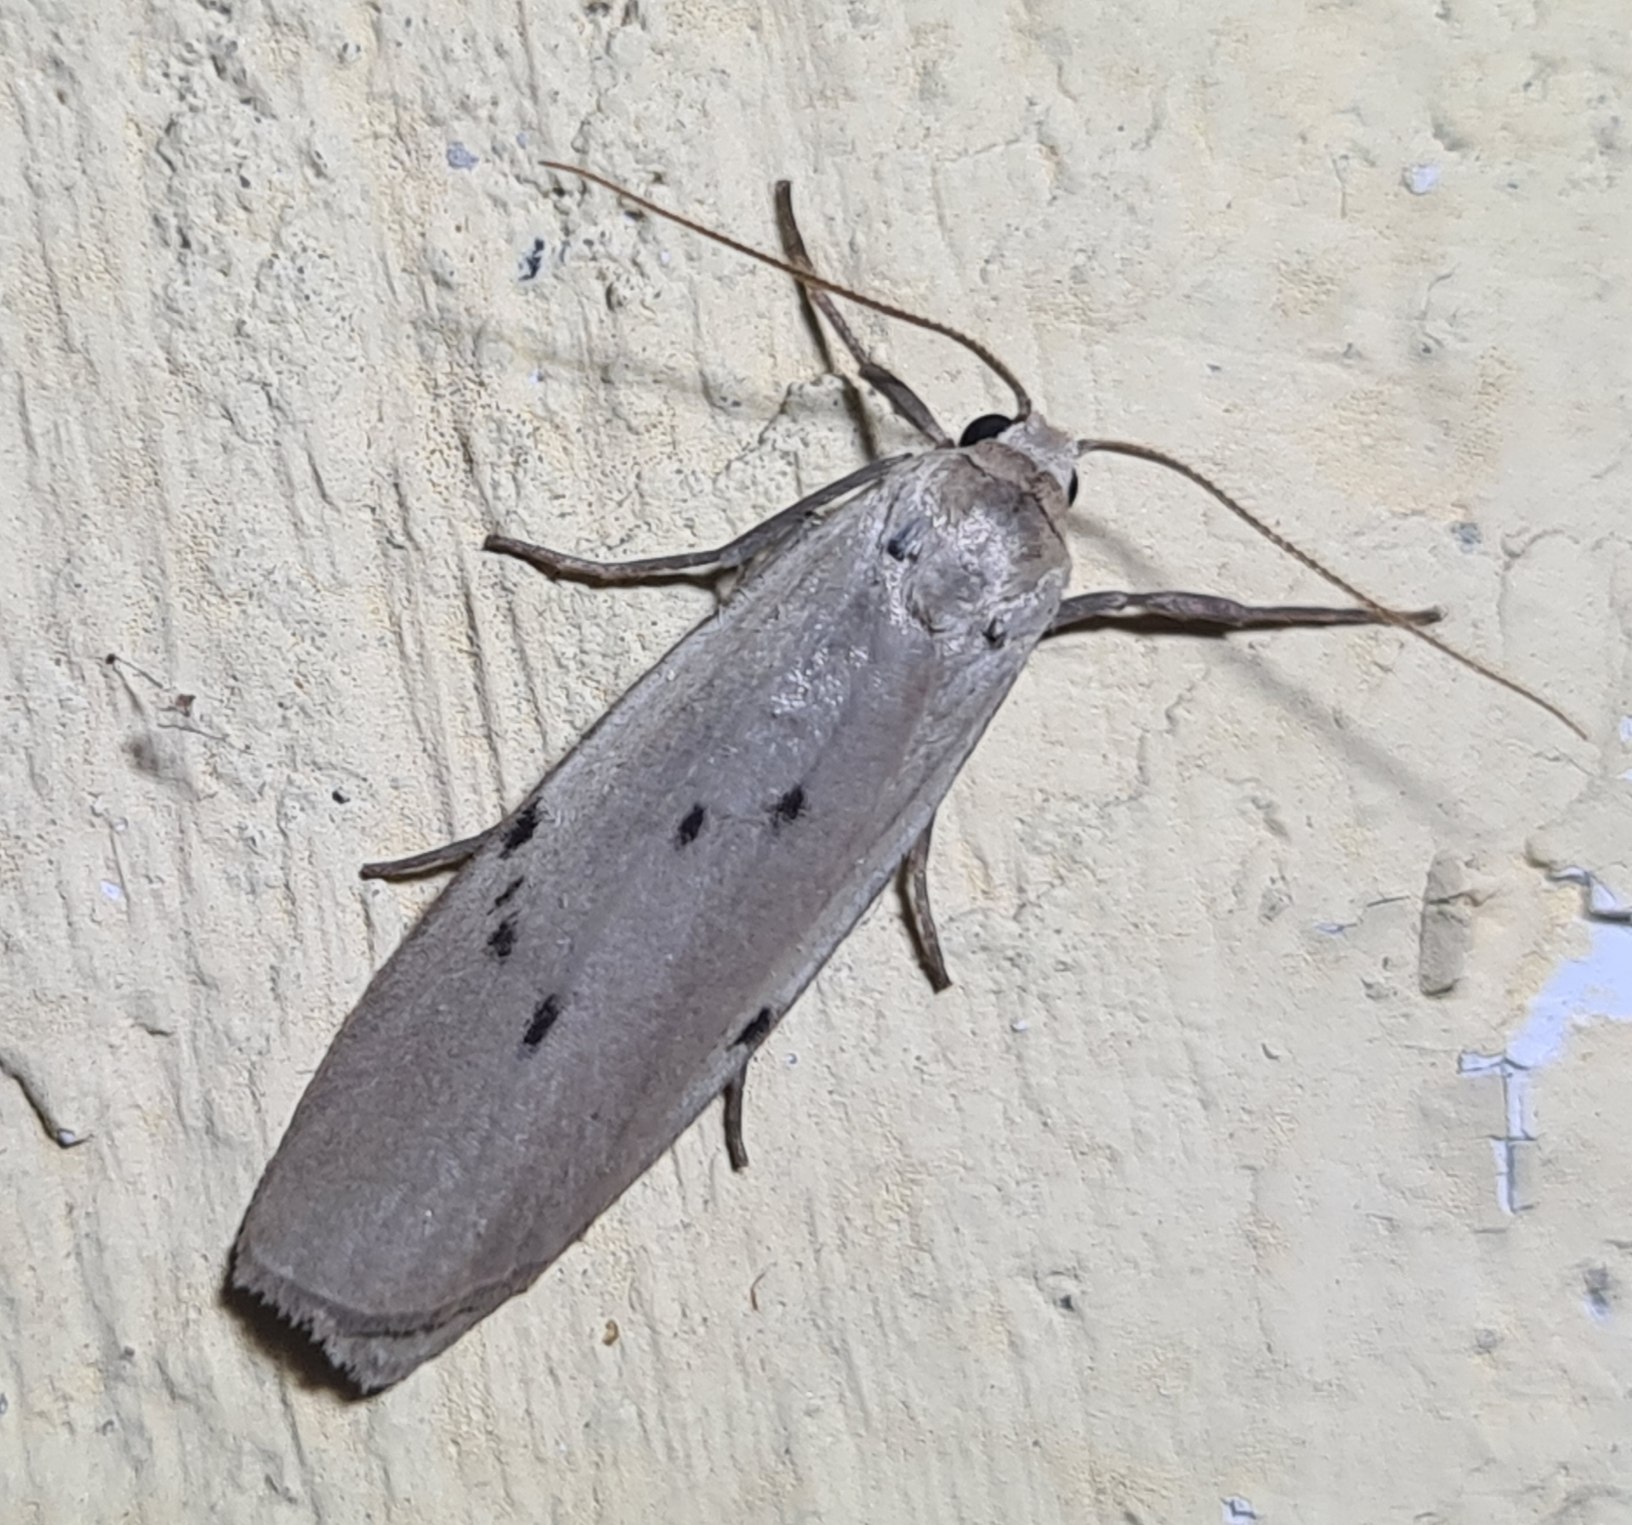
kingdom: Animalia
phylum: Arthropoda
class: Insecta
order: Lepidoptera
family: Erebidae
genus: Pelosia
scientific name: Pelosia muscerda
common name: Prikket lavspinder
